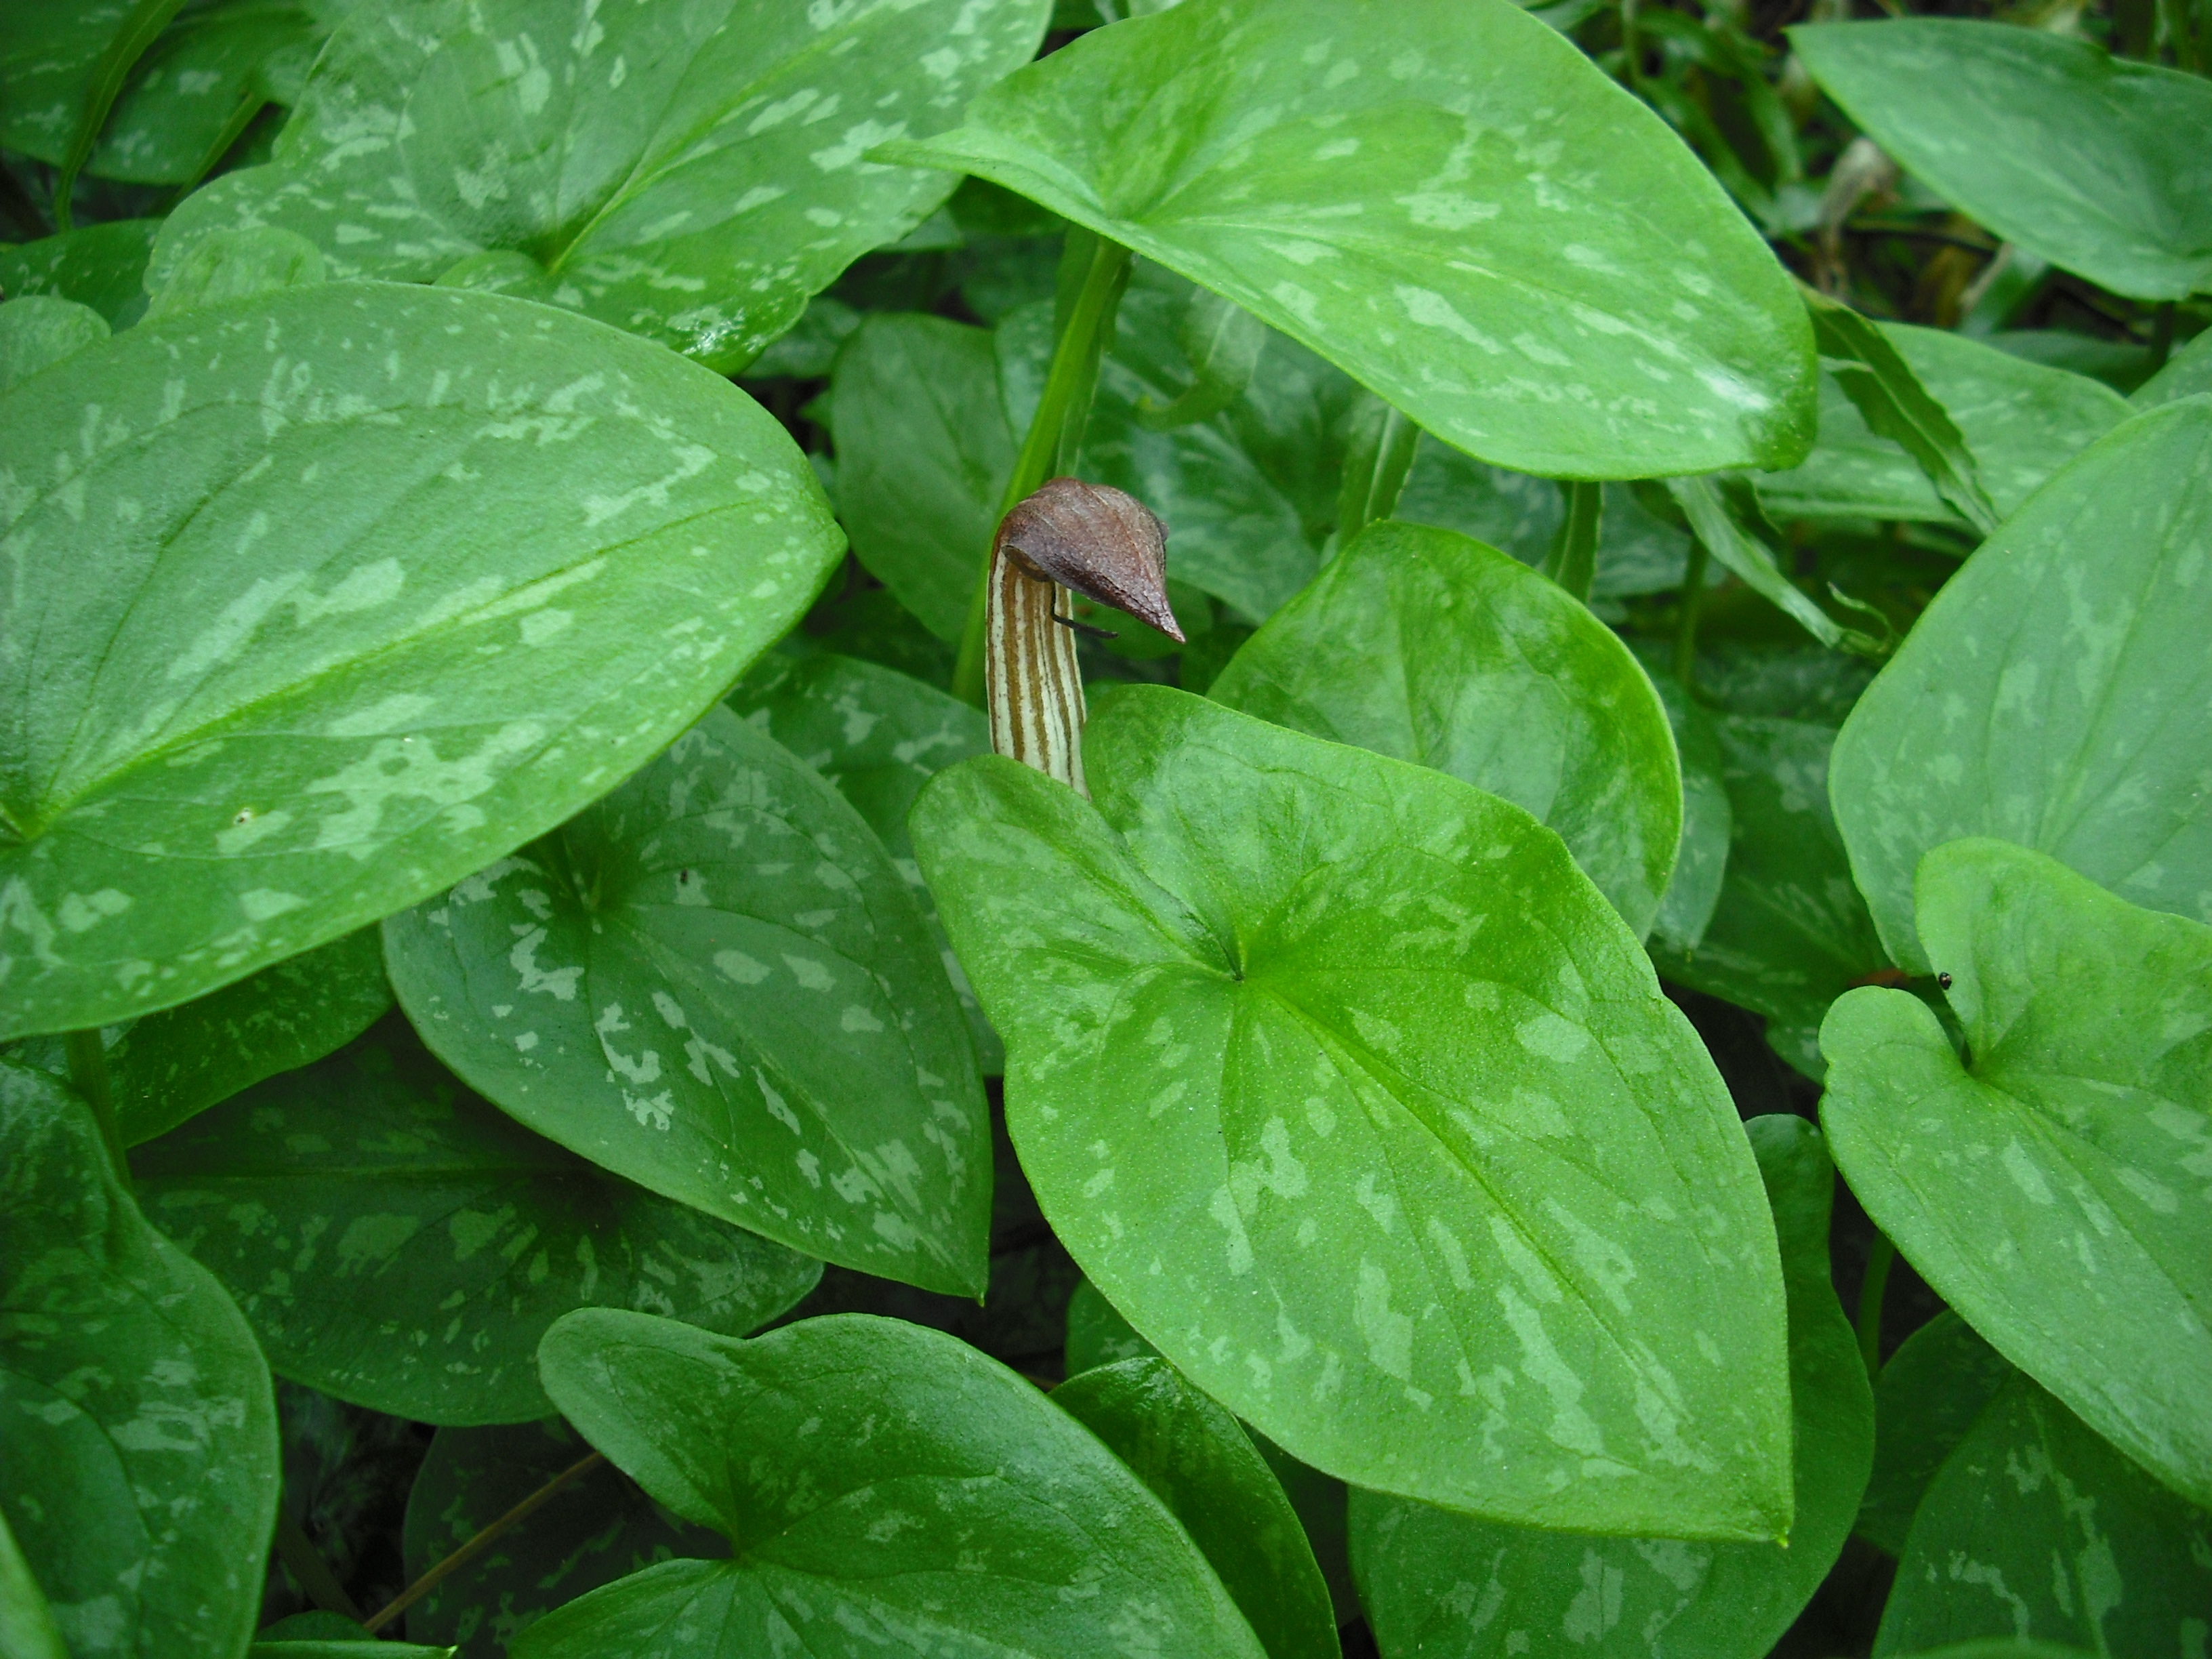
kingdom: Plantae
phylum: Tracheophyta
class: Liliopsida
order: Alismatales
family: Araceae
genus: Arisarum
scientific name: Arisarum vulgare
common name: Common arisarum
